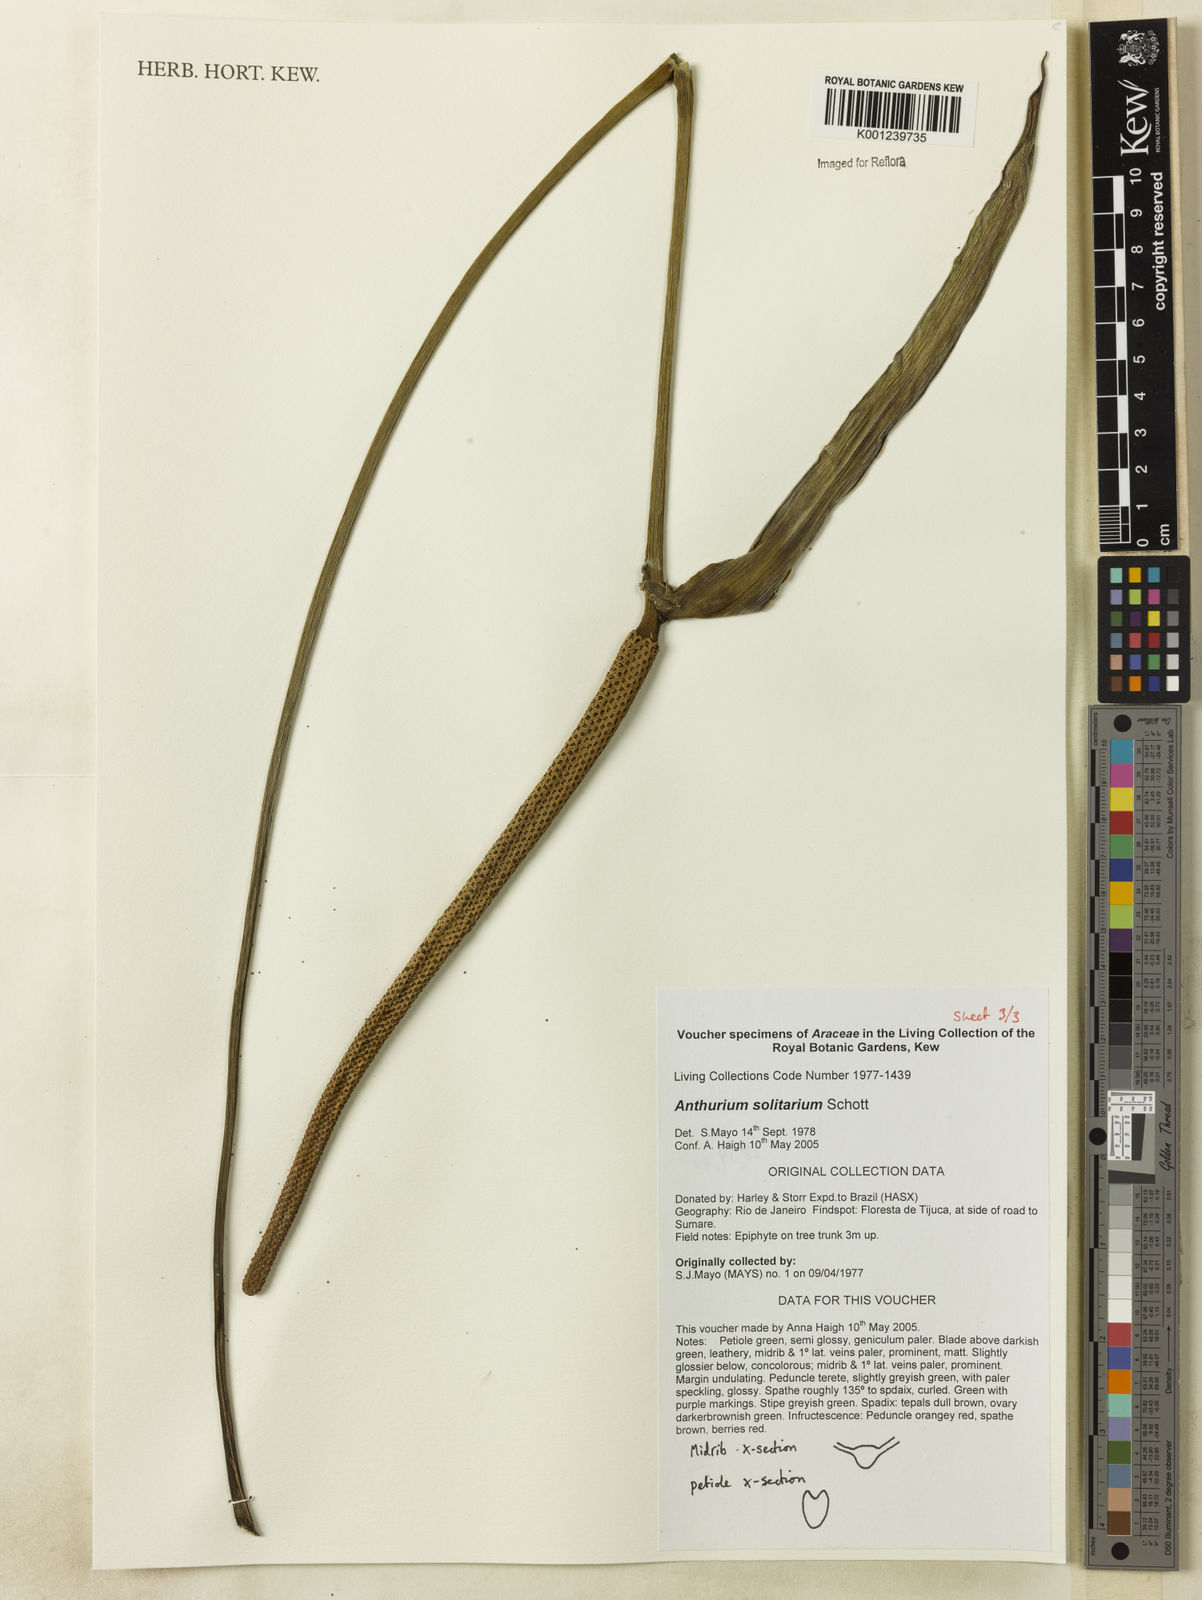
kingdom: Plantae
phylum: Tracheophyta
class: Liliopsida
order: Alismatales
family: Araceae
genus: Anthurium
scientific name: Anthurium solitarium
